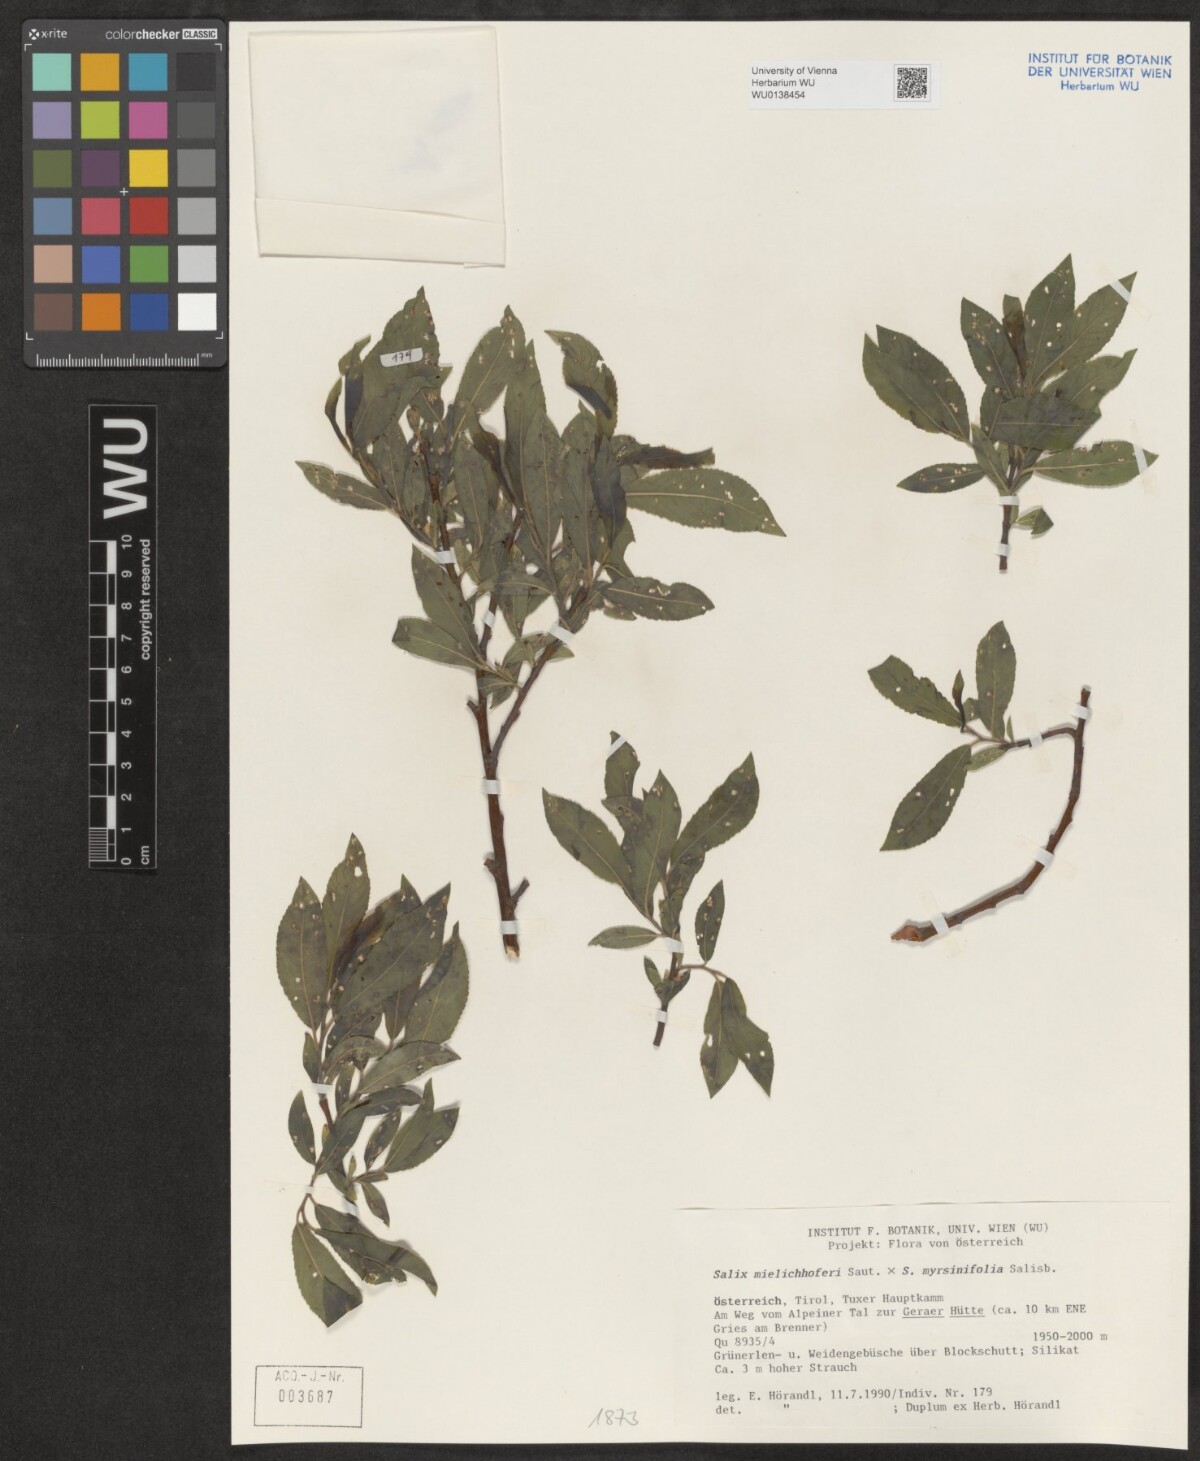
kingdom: Plantae
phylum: Tracheophyta
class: Magnoliopsida
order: Malpighiales
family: Salicaceae
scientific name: Salicaceae
